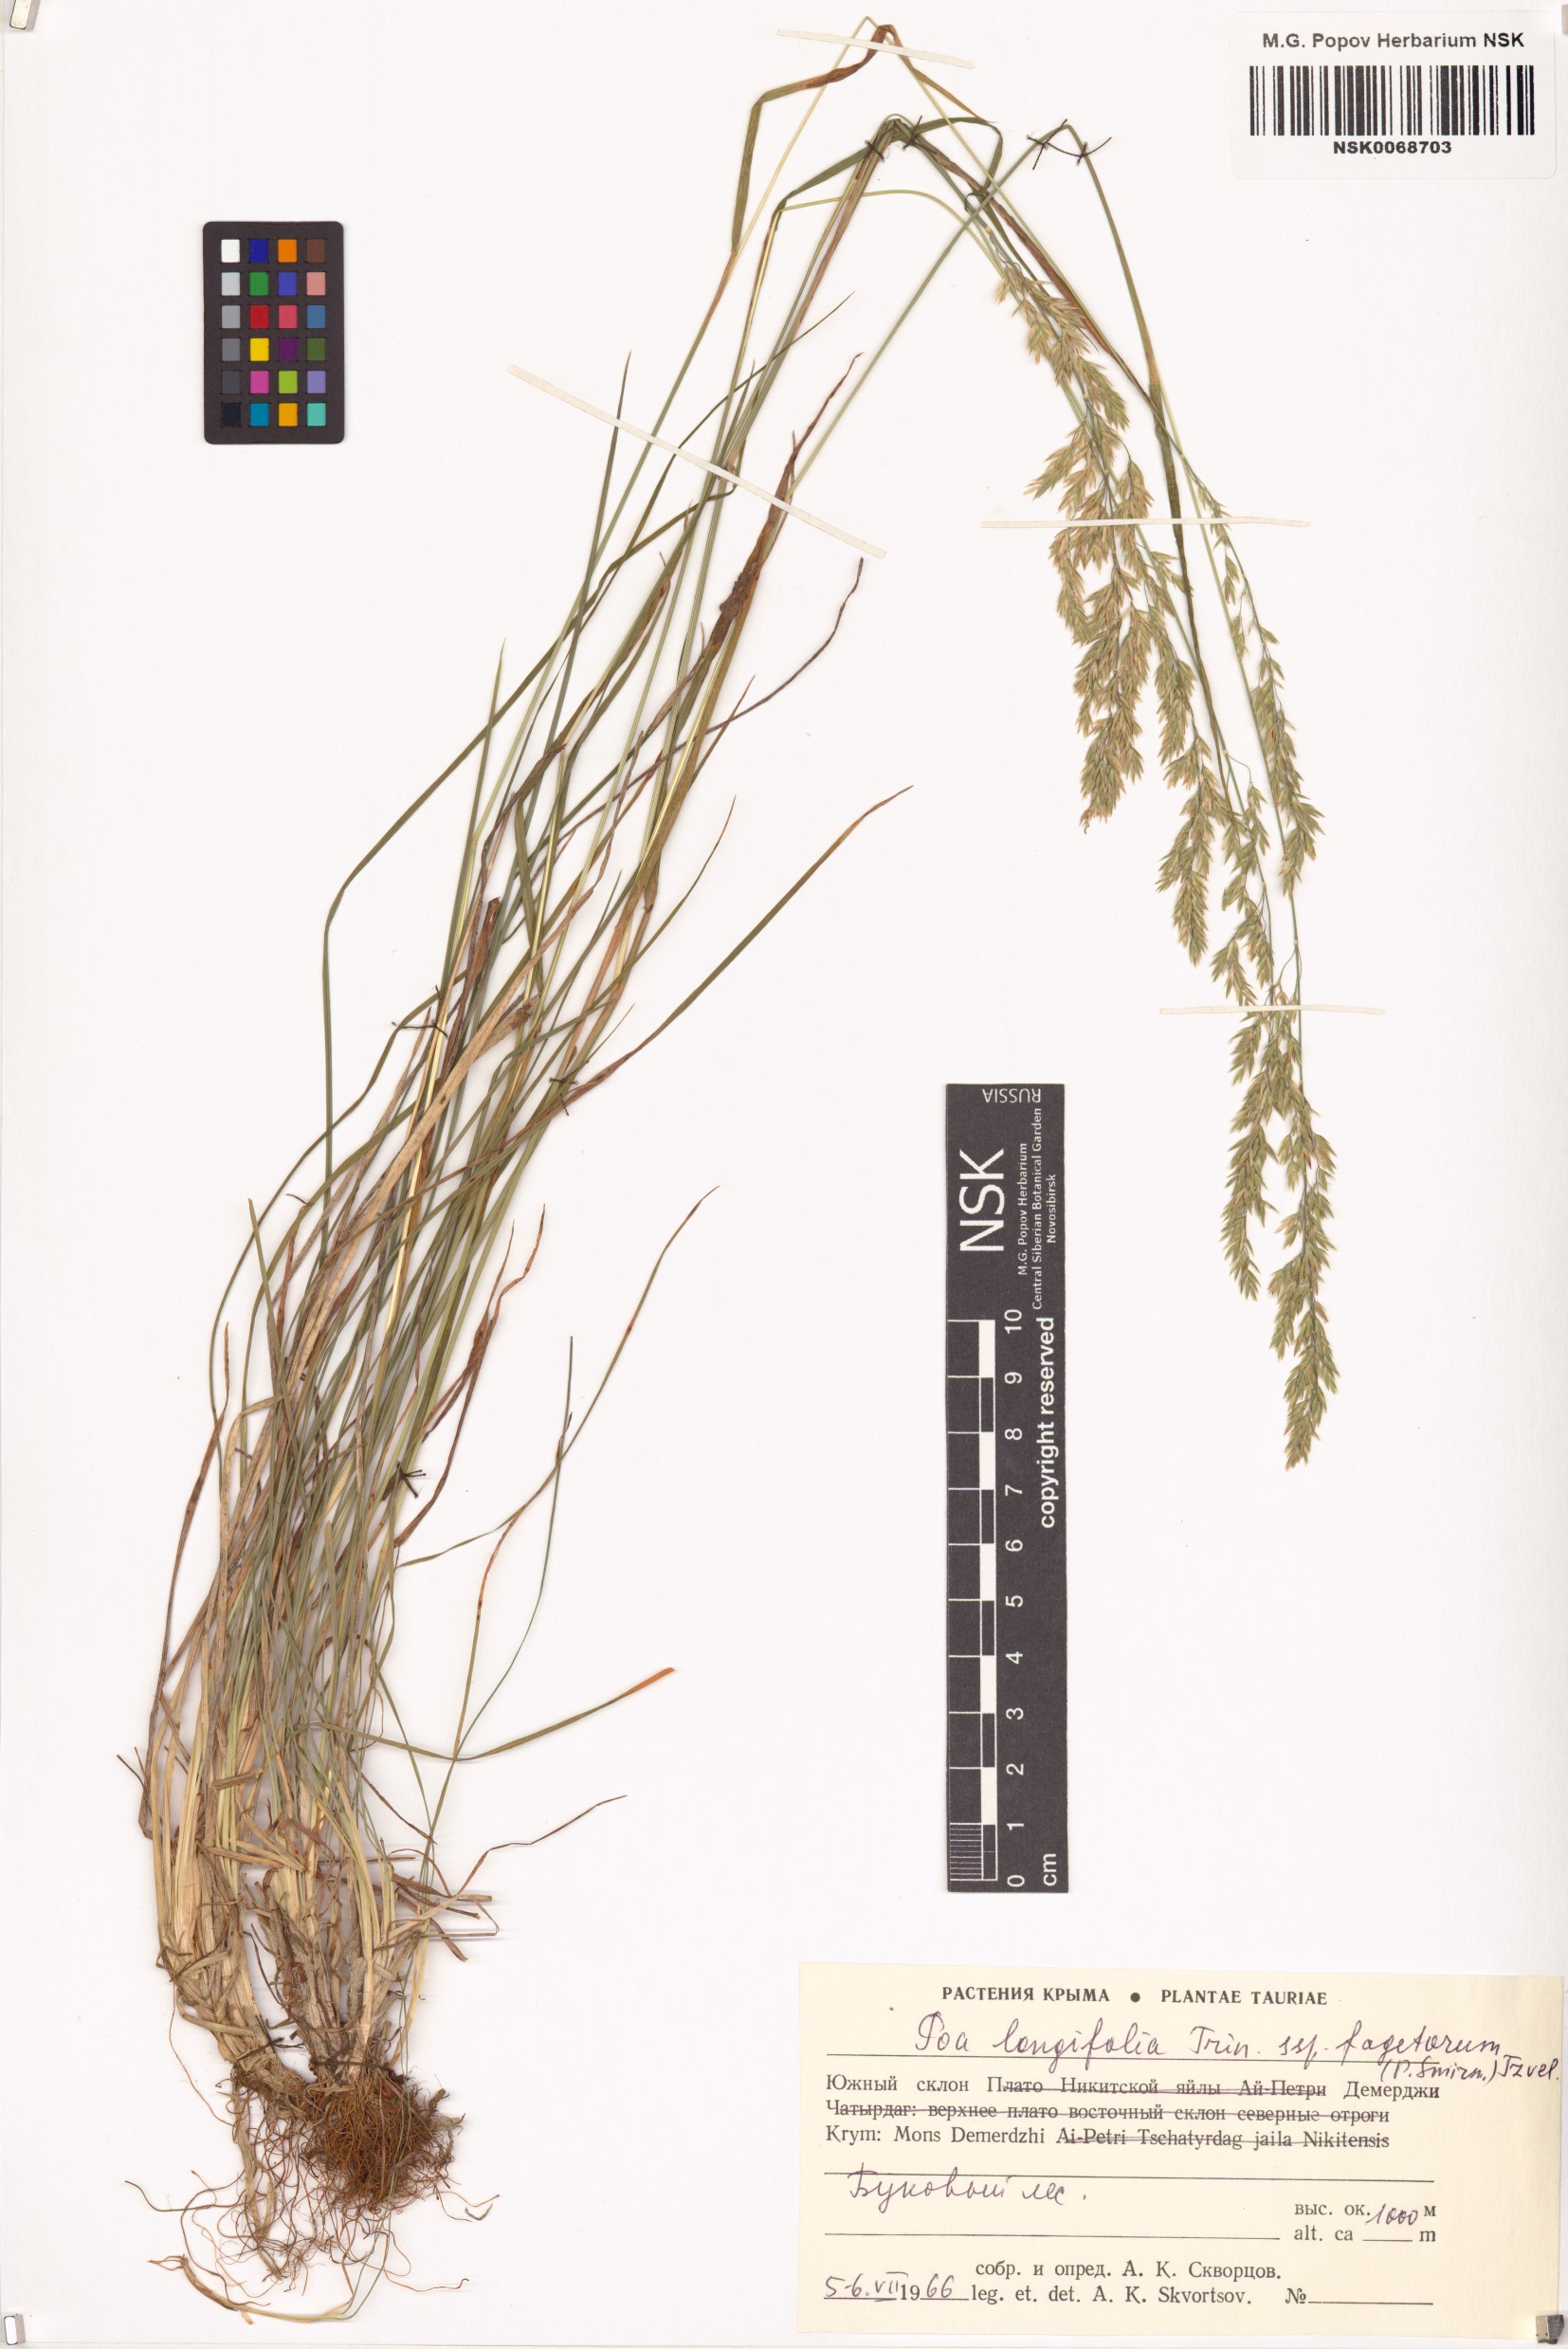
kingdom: Plantae
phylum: Tracheophyta
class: Liliopsida
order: Poales
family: Poaceae
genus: Poa
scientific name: Poa longifolia
